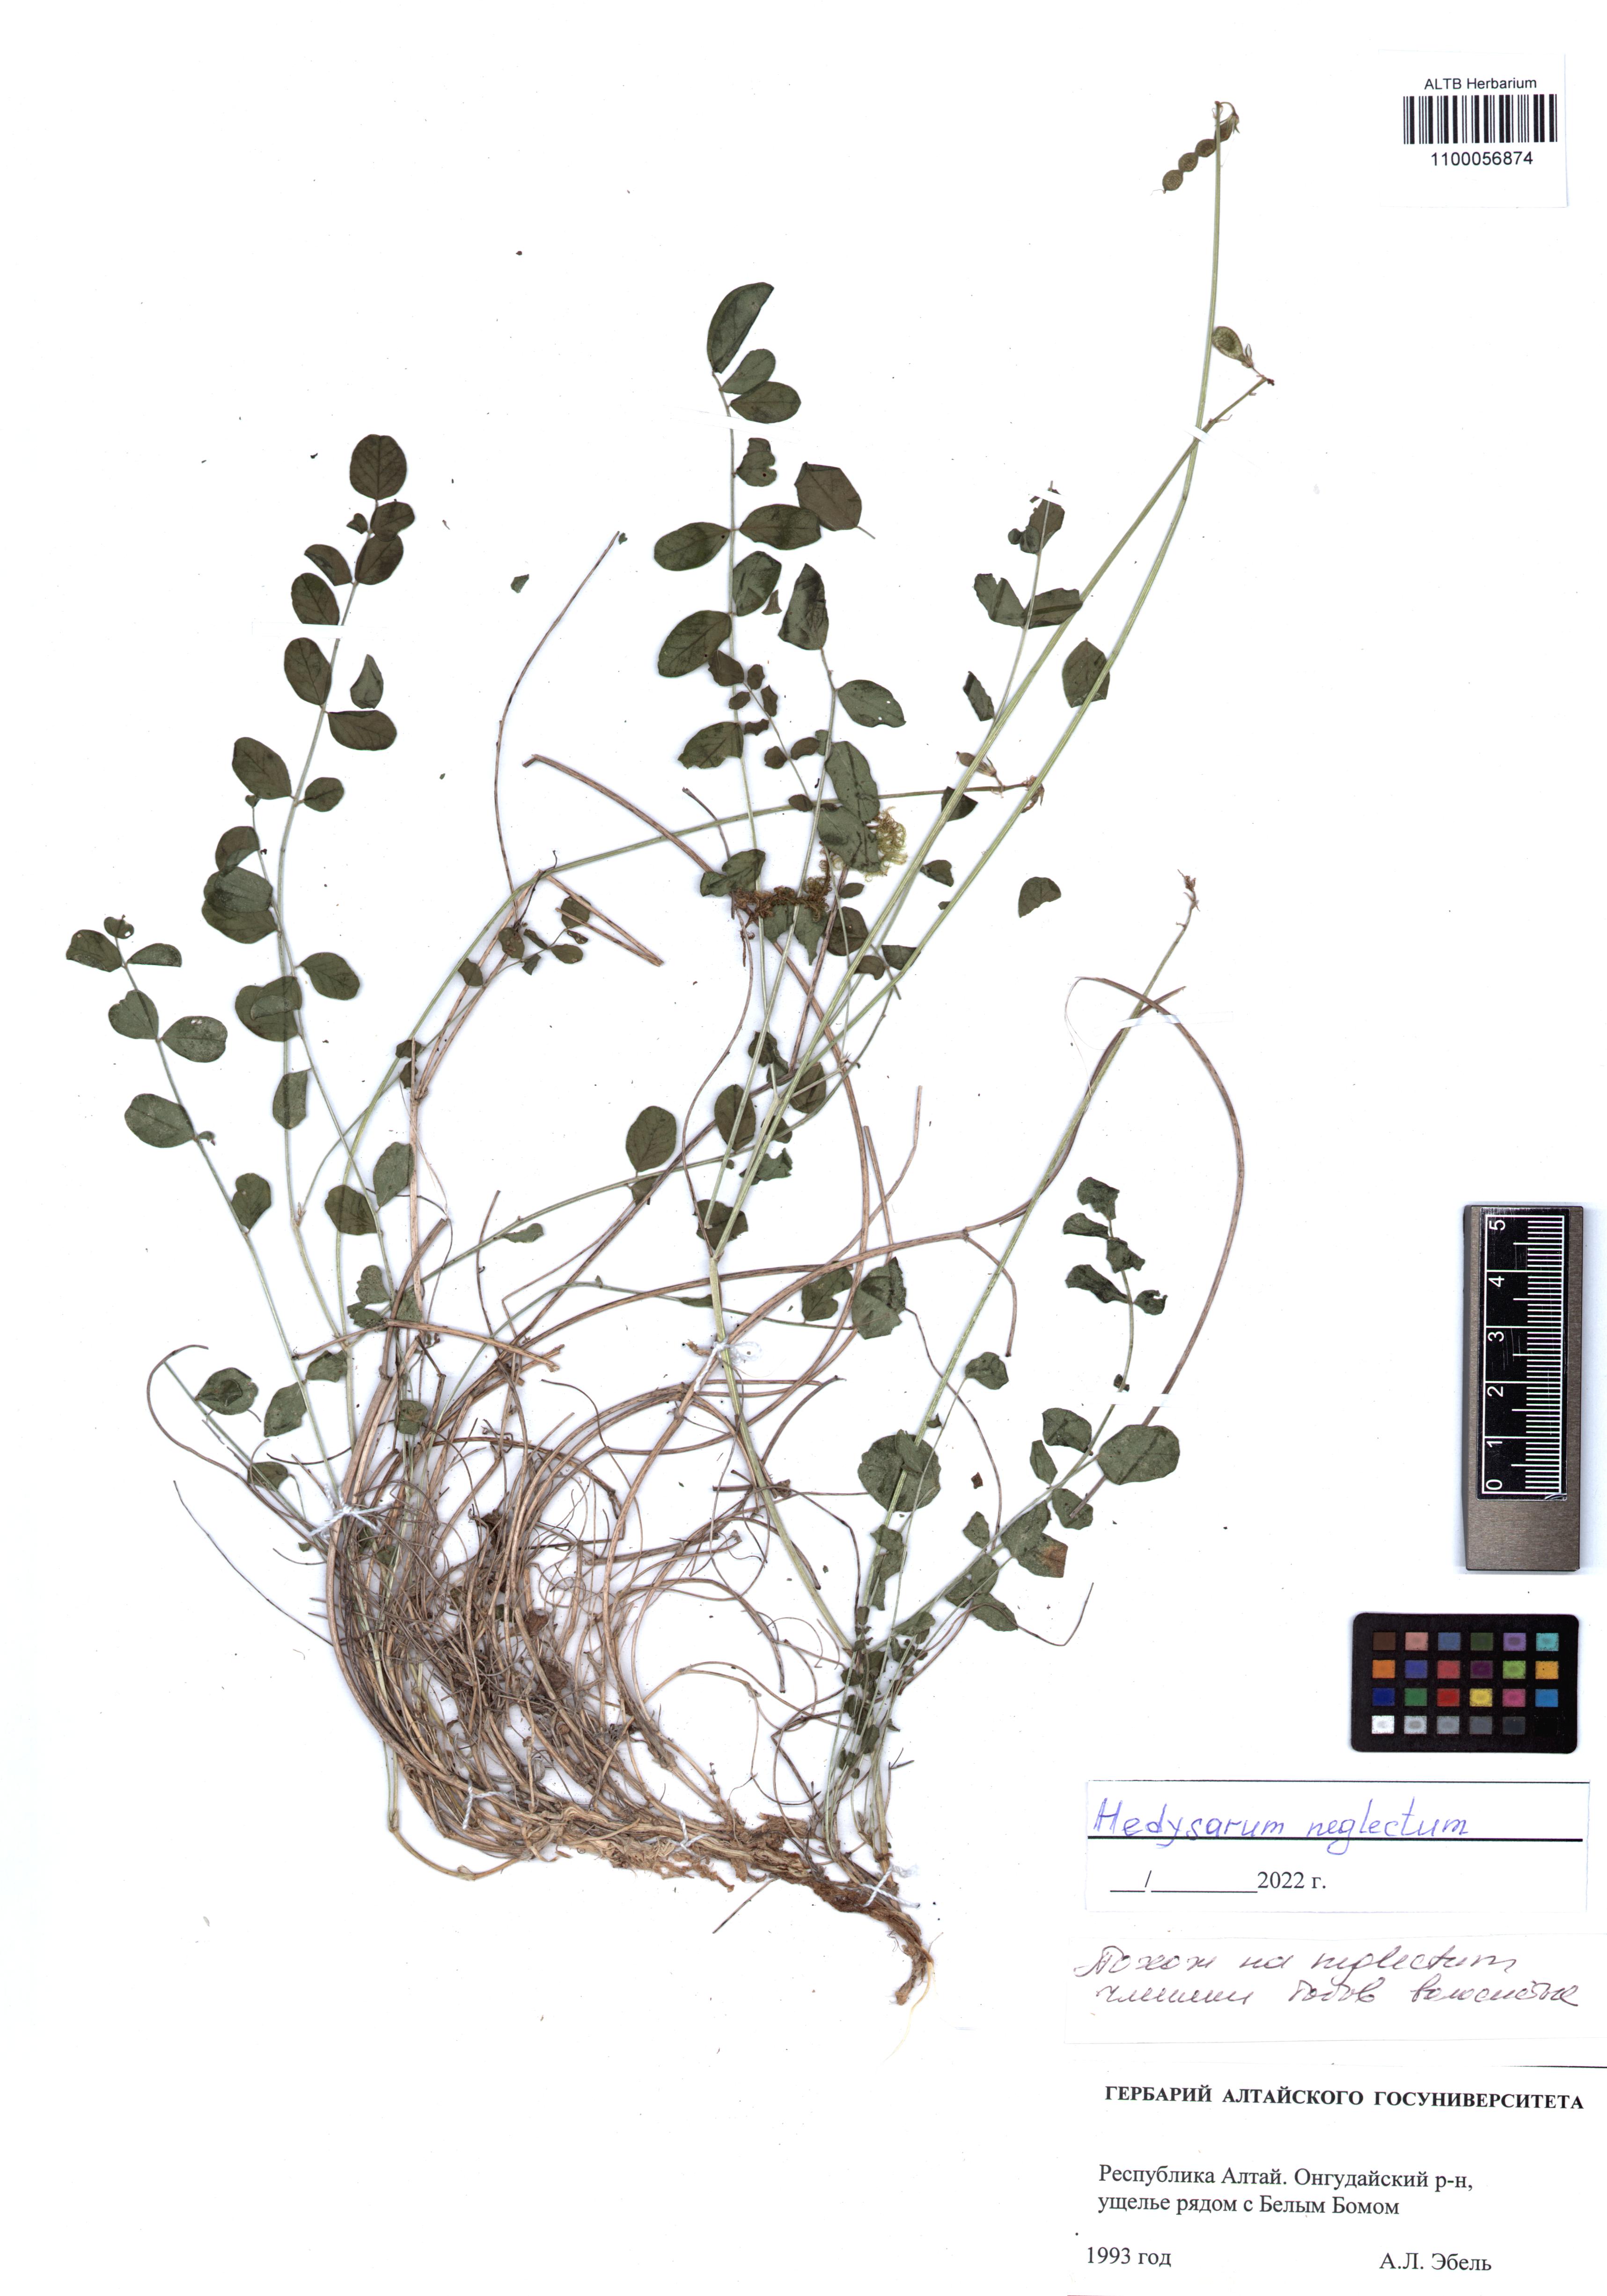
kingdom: Plantae
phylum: Tracheophyta
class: Magnoliopsida
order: Fabales
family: Fabaceae
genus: Hedysarum
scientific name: Hedysarum neglectum
